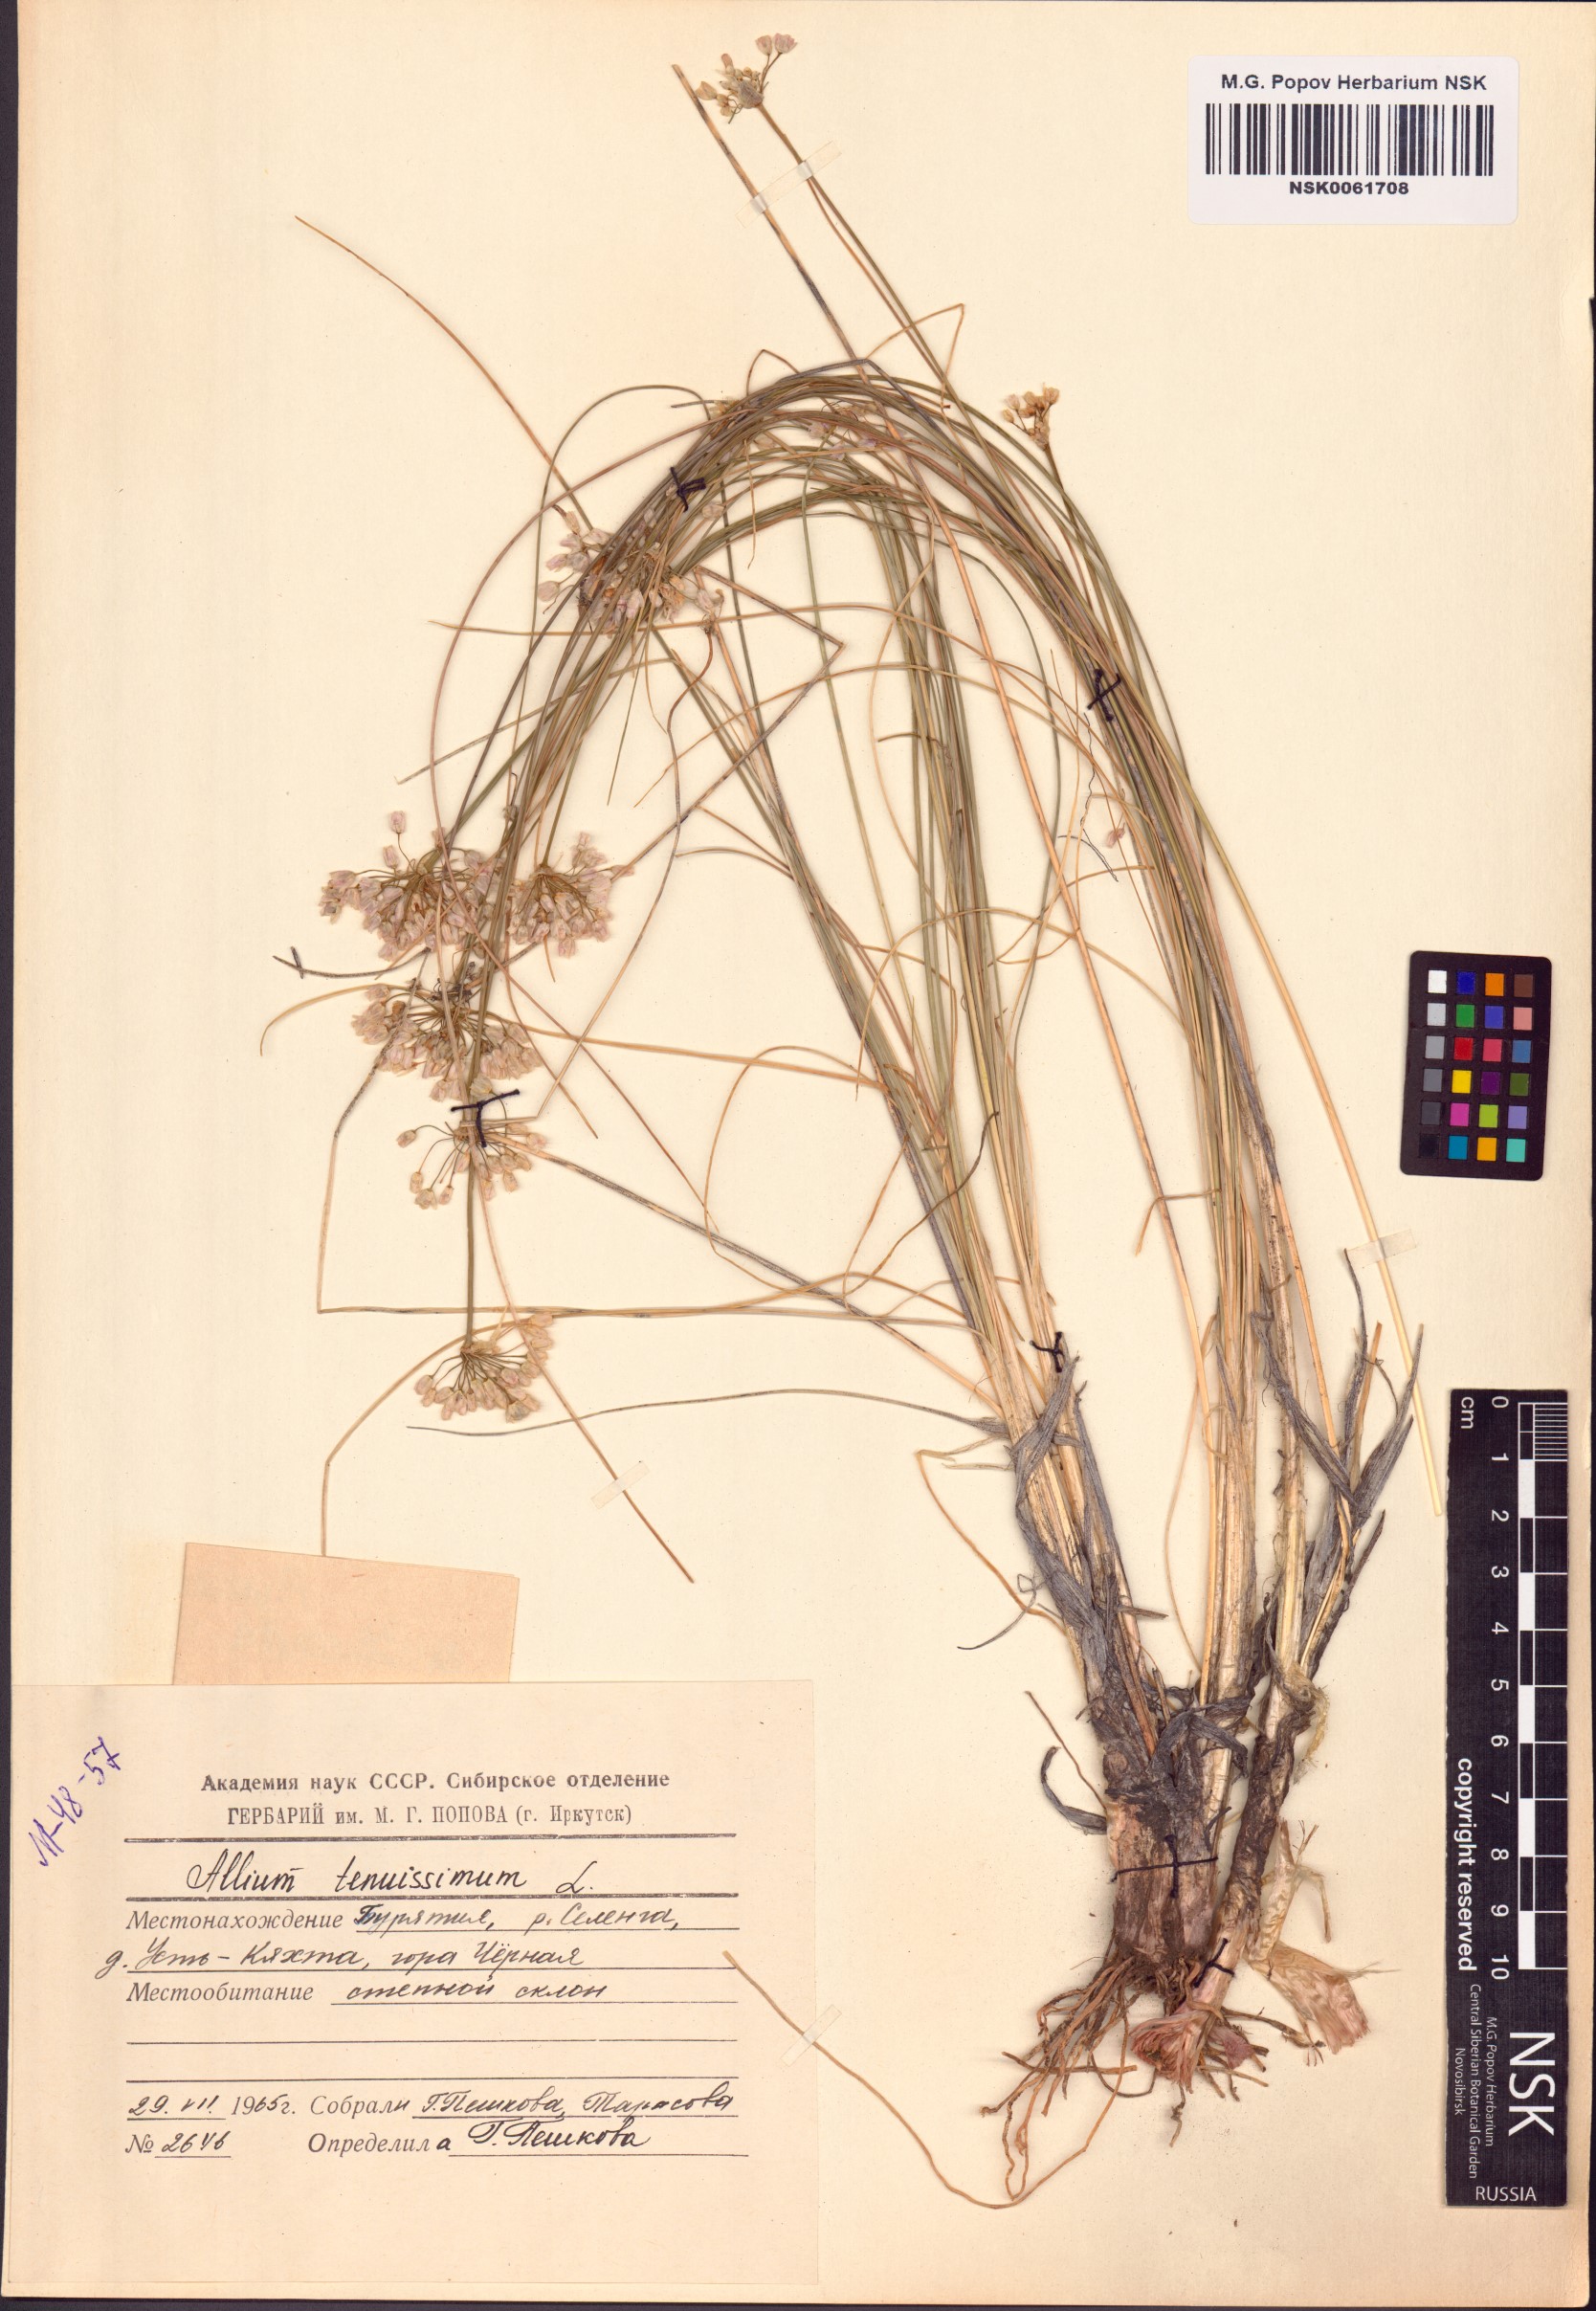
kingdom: Plantae
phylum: Tracheophyta
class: Liliopsida
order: Asparagales
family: Amaryllidaceae
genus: Allium
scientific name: Allium tenuissimum
